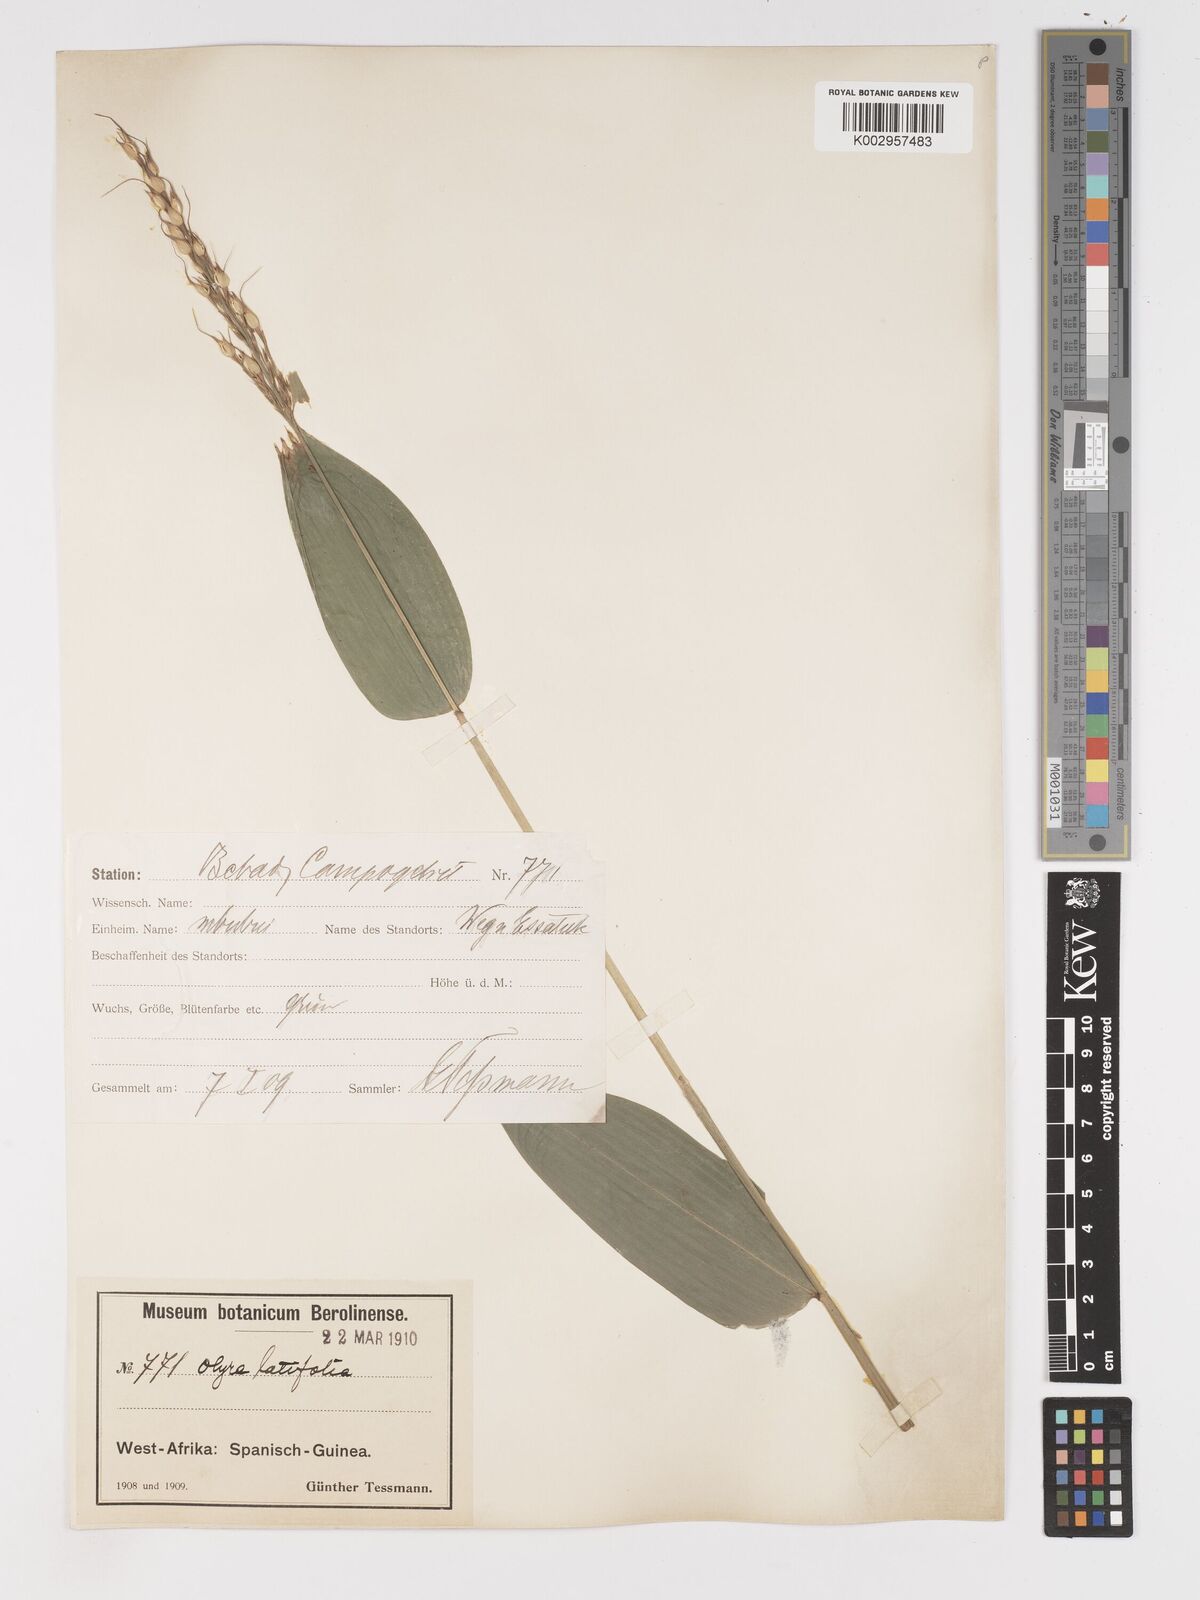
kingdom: Plantae
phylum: Tracheophyta
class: Liliopsida
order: Poales
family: Poaceae
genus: Olyra
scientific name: Olyra latifolia
